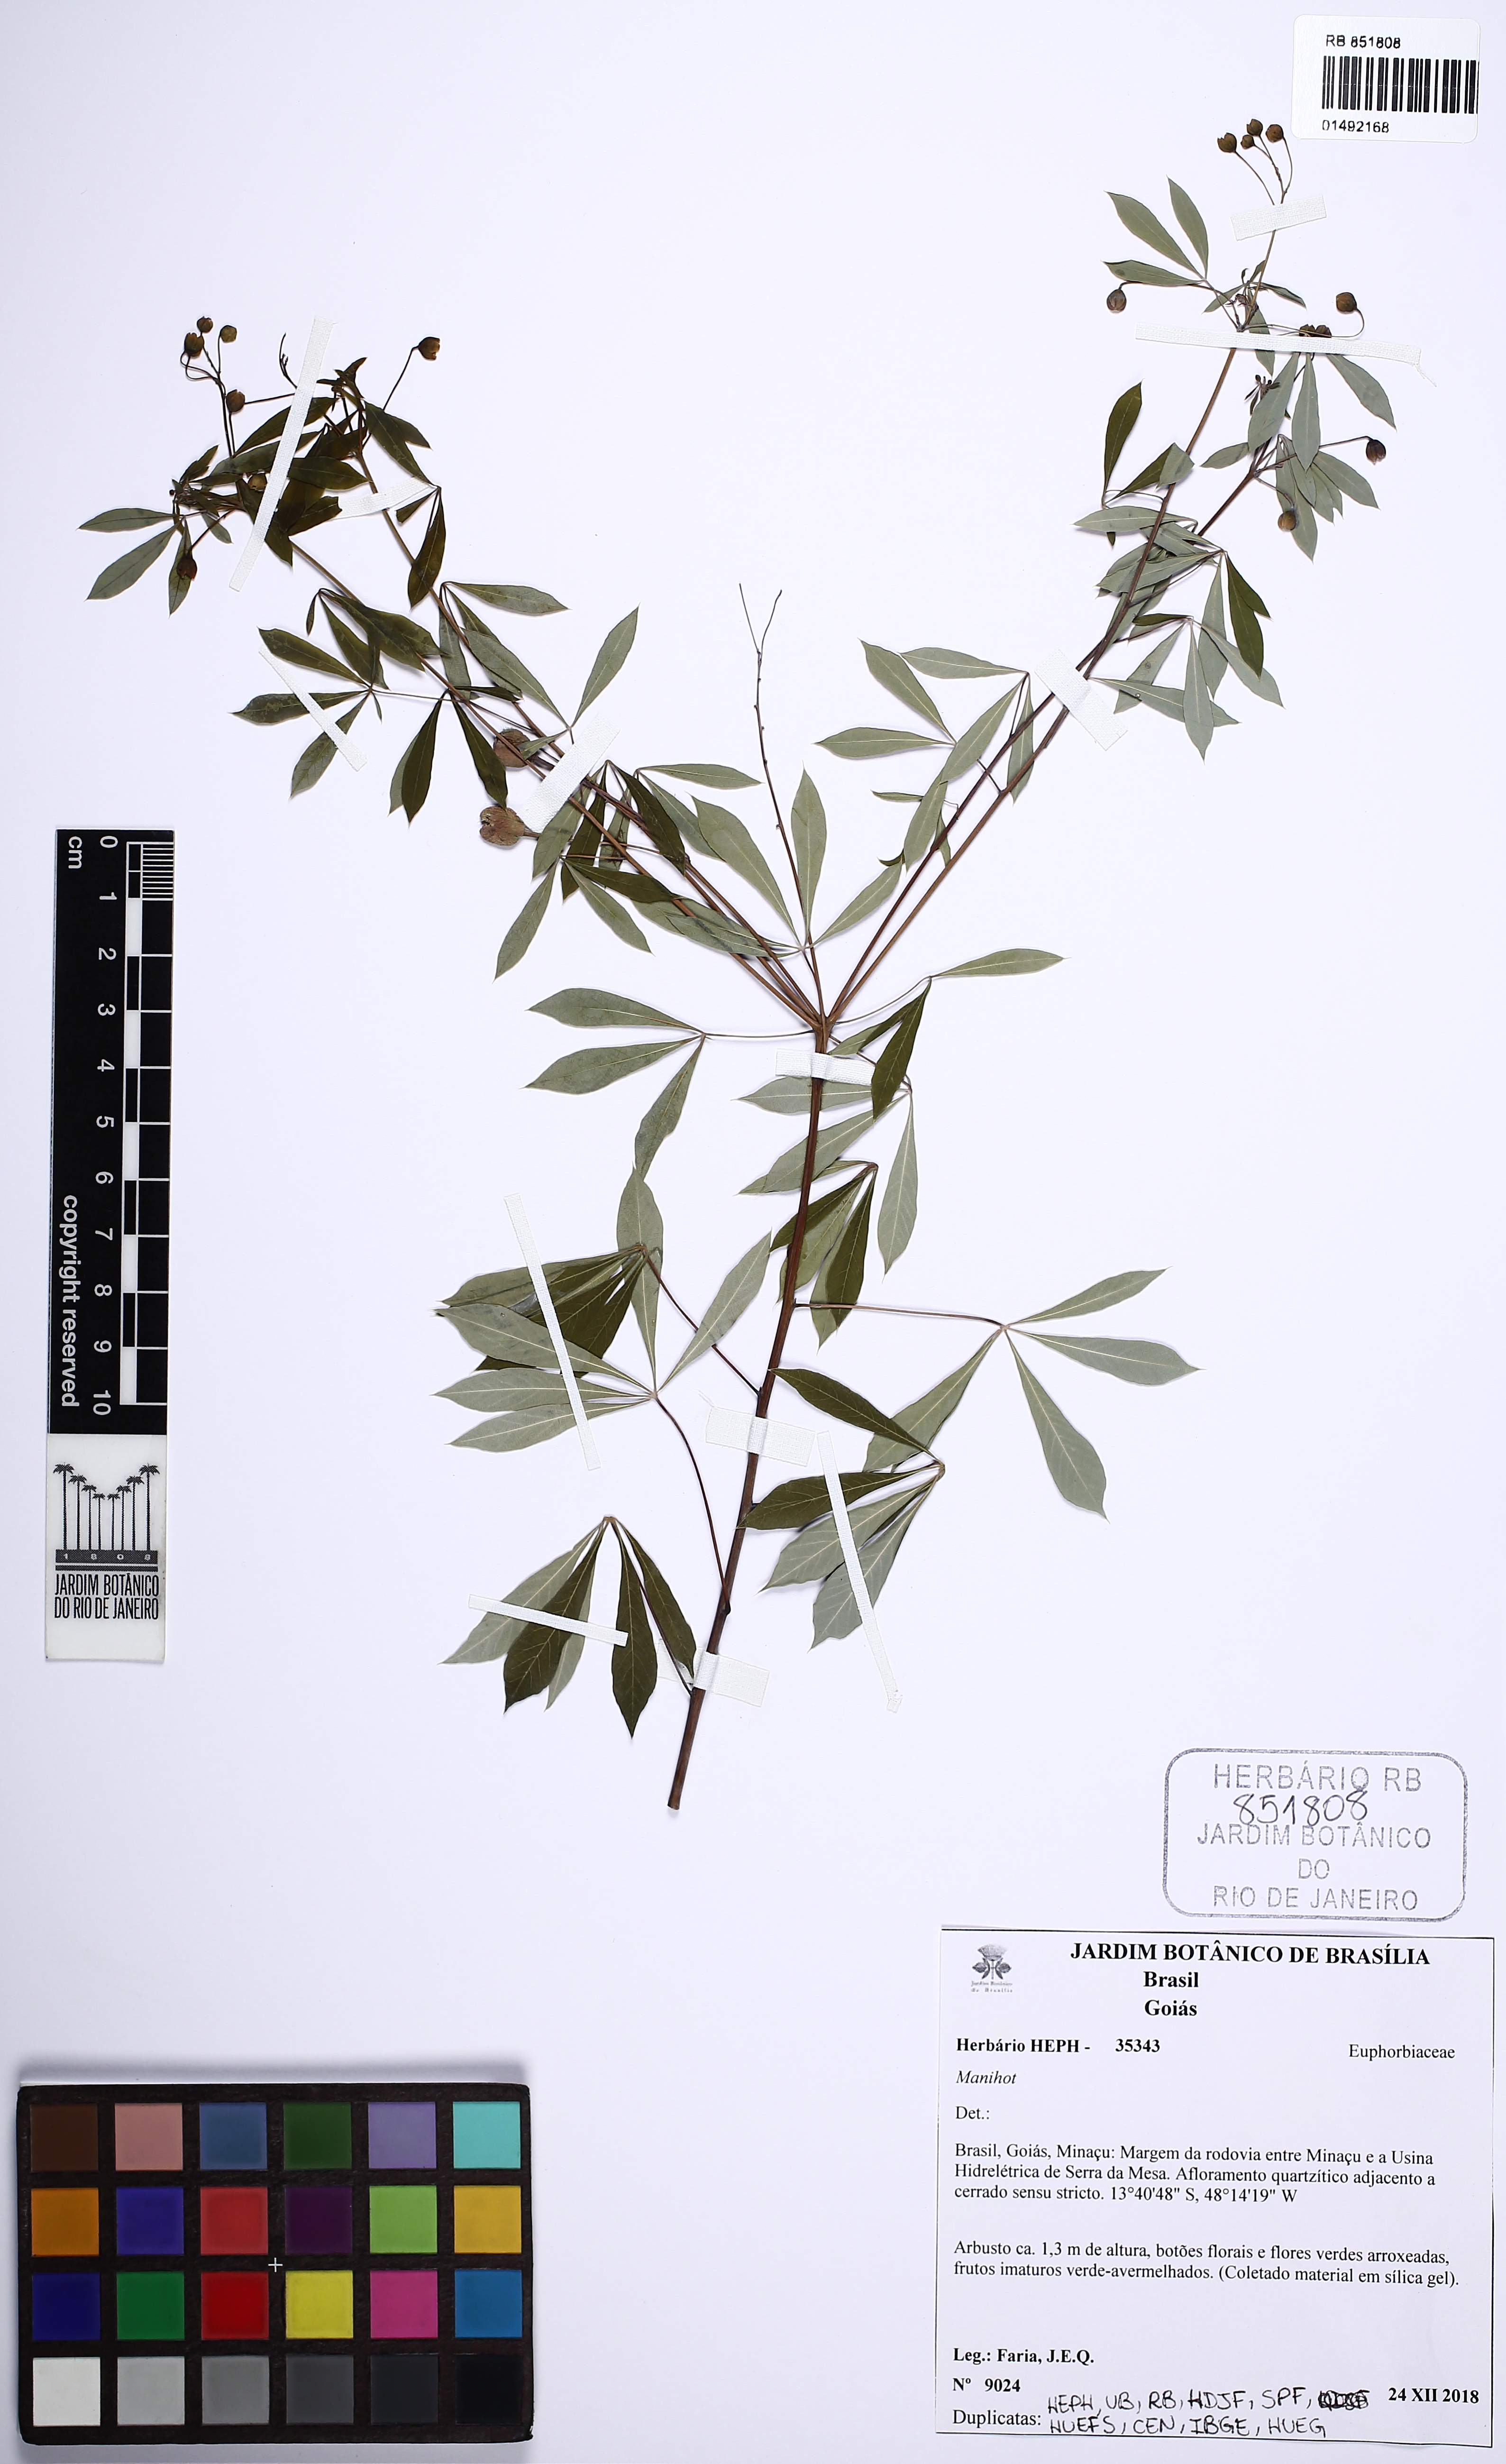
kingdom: Plantae
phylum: Tracheophyta
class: Magnoliopsida
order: Malpighiales
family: Euphorbiaceae
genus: Manihot
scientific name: Manihot
